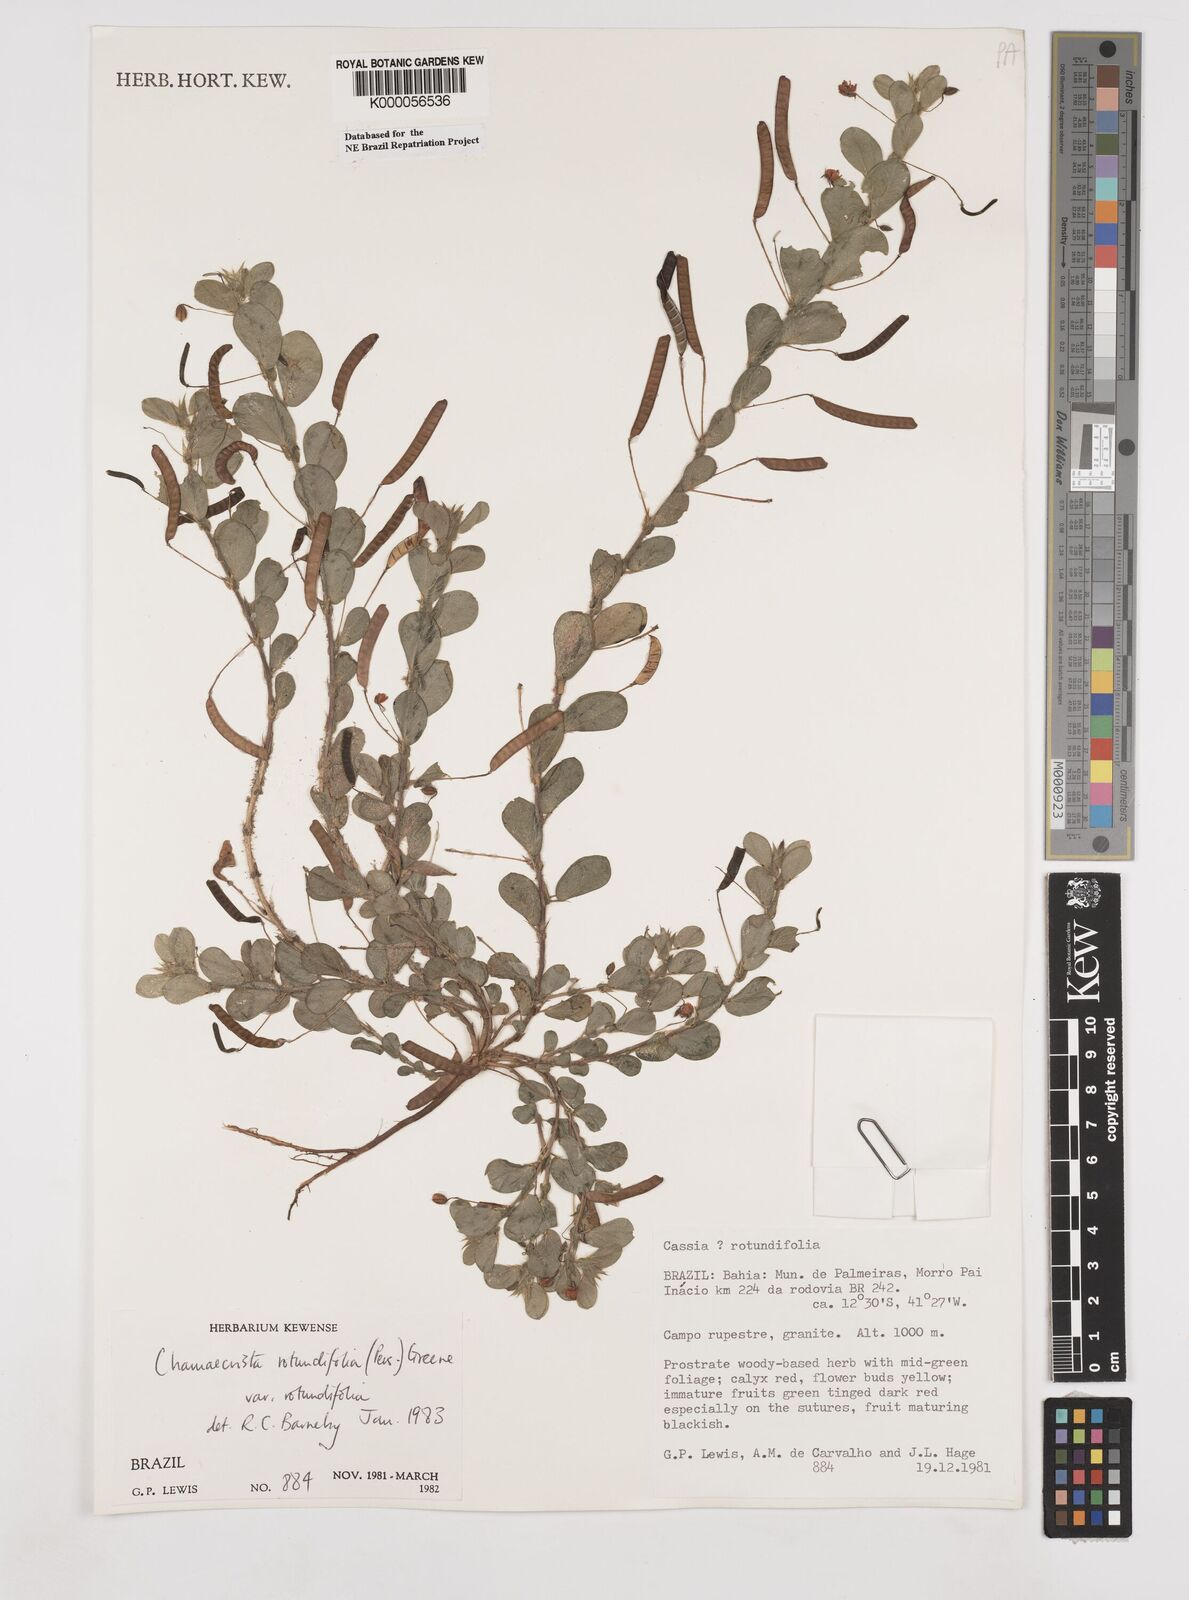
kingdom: Plantae
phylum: Tracheophyta
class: Magnoliopsida
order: Fabales
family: Fabaceae
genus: Chamaecrista
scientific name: Chamaecrista rotundifolia
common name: Round-leaf cassia
